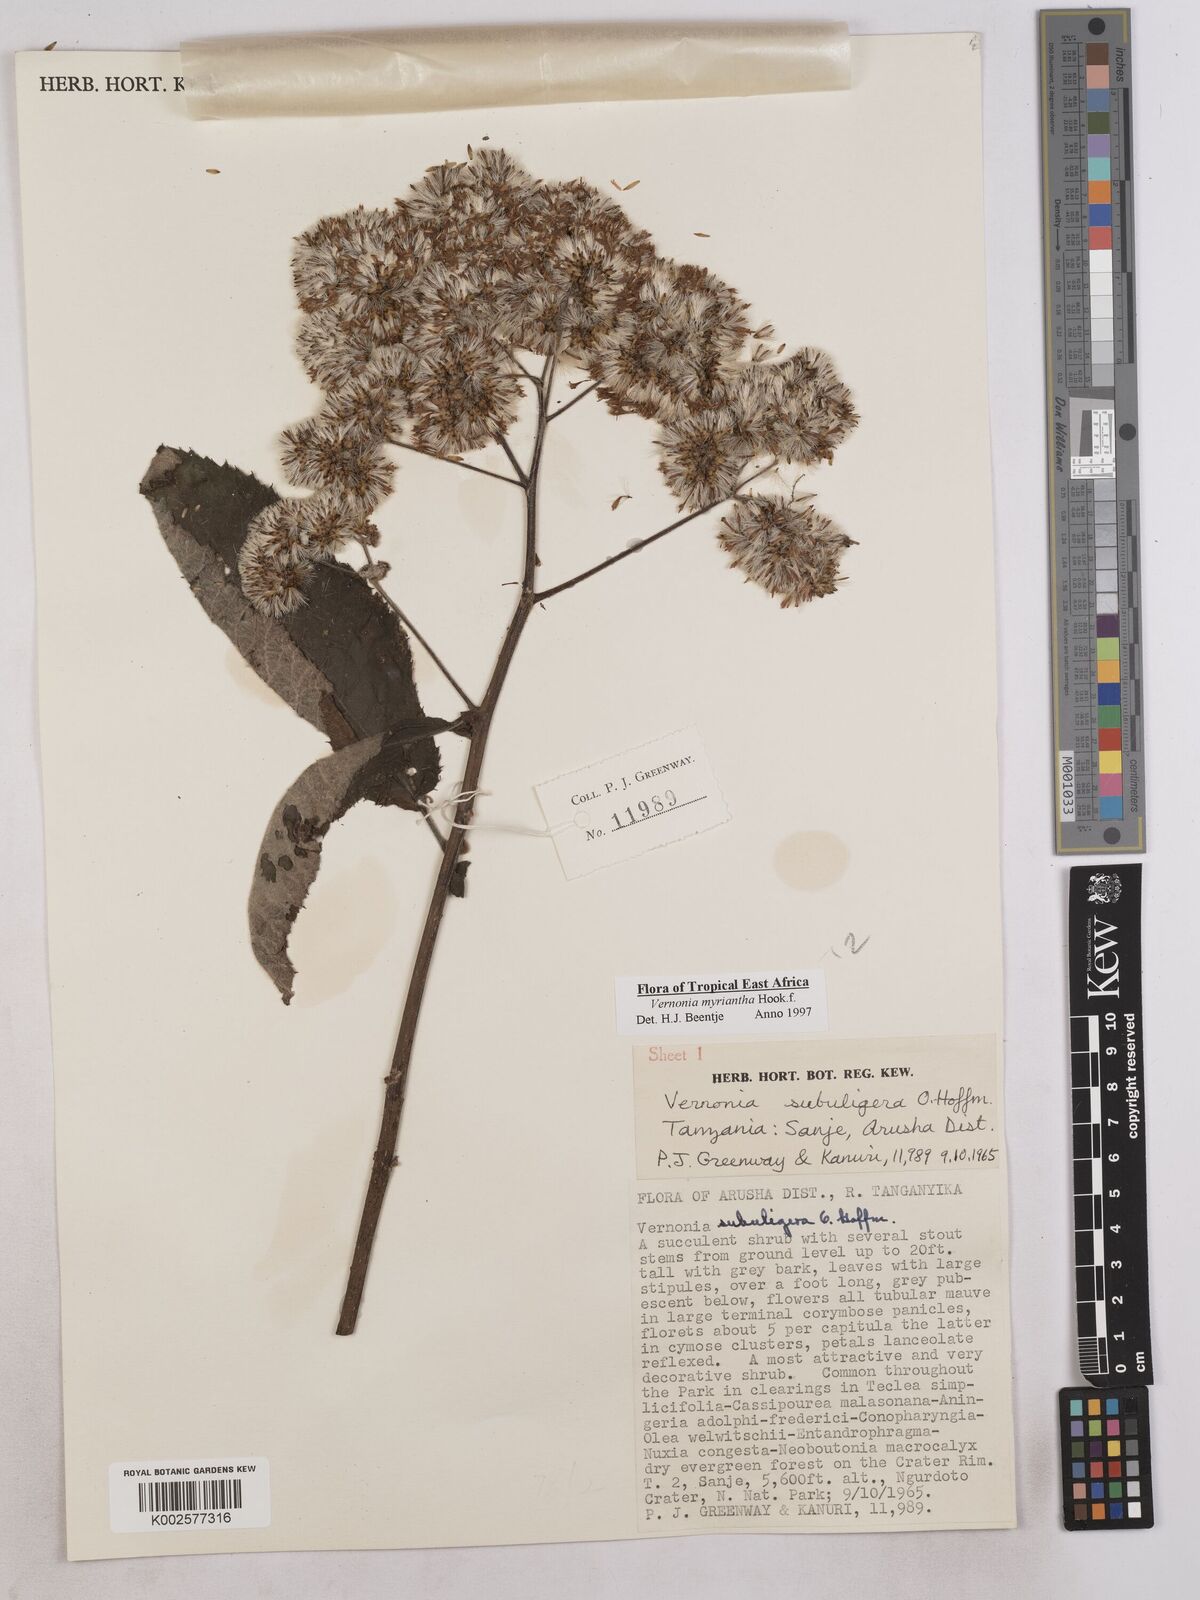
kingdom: Plantae
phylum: Tracheophyta
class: Magnoliopsida
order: Asterales
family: Asteraceae
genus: Gymnanthemum
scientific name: Gymnanthemum myrianthum
